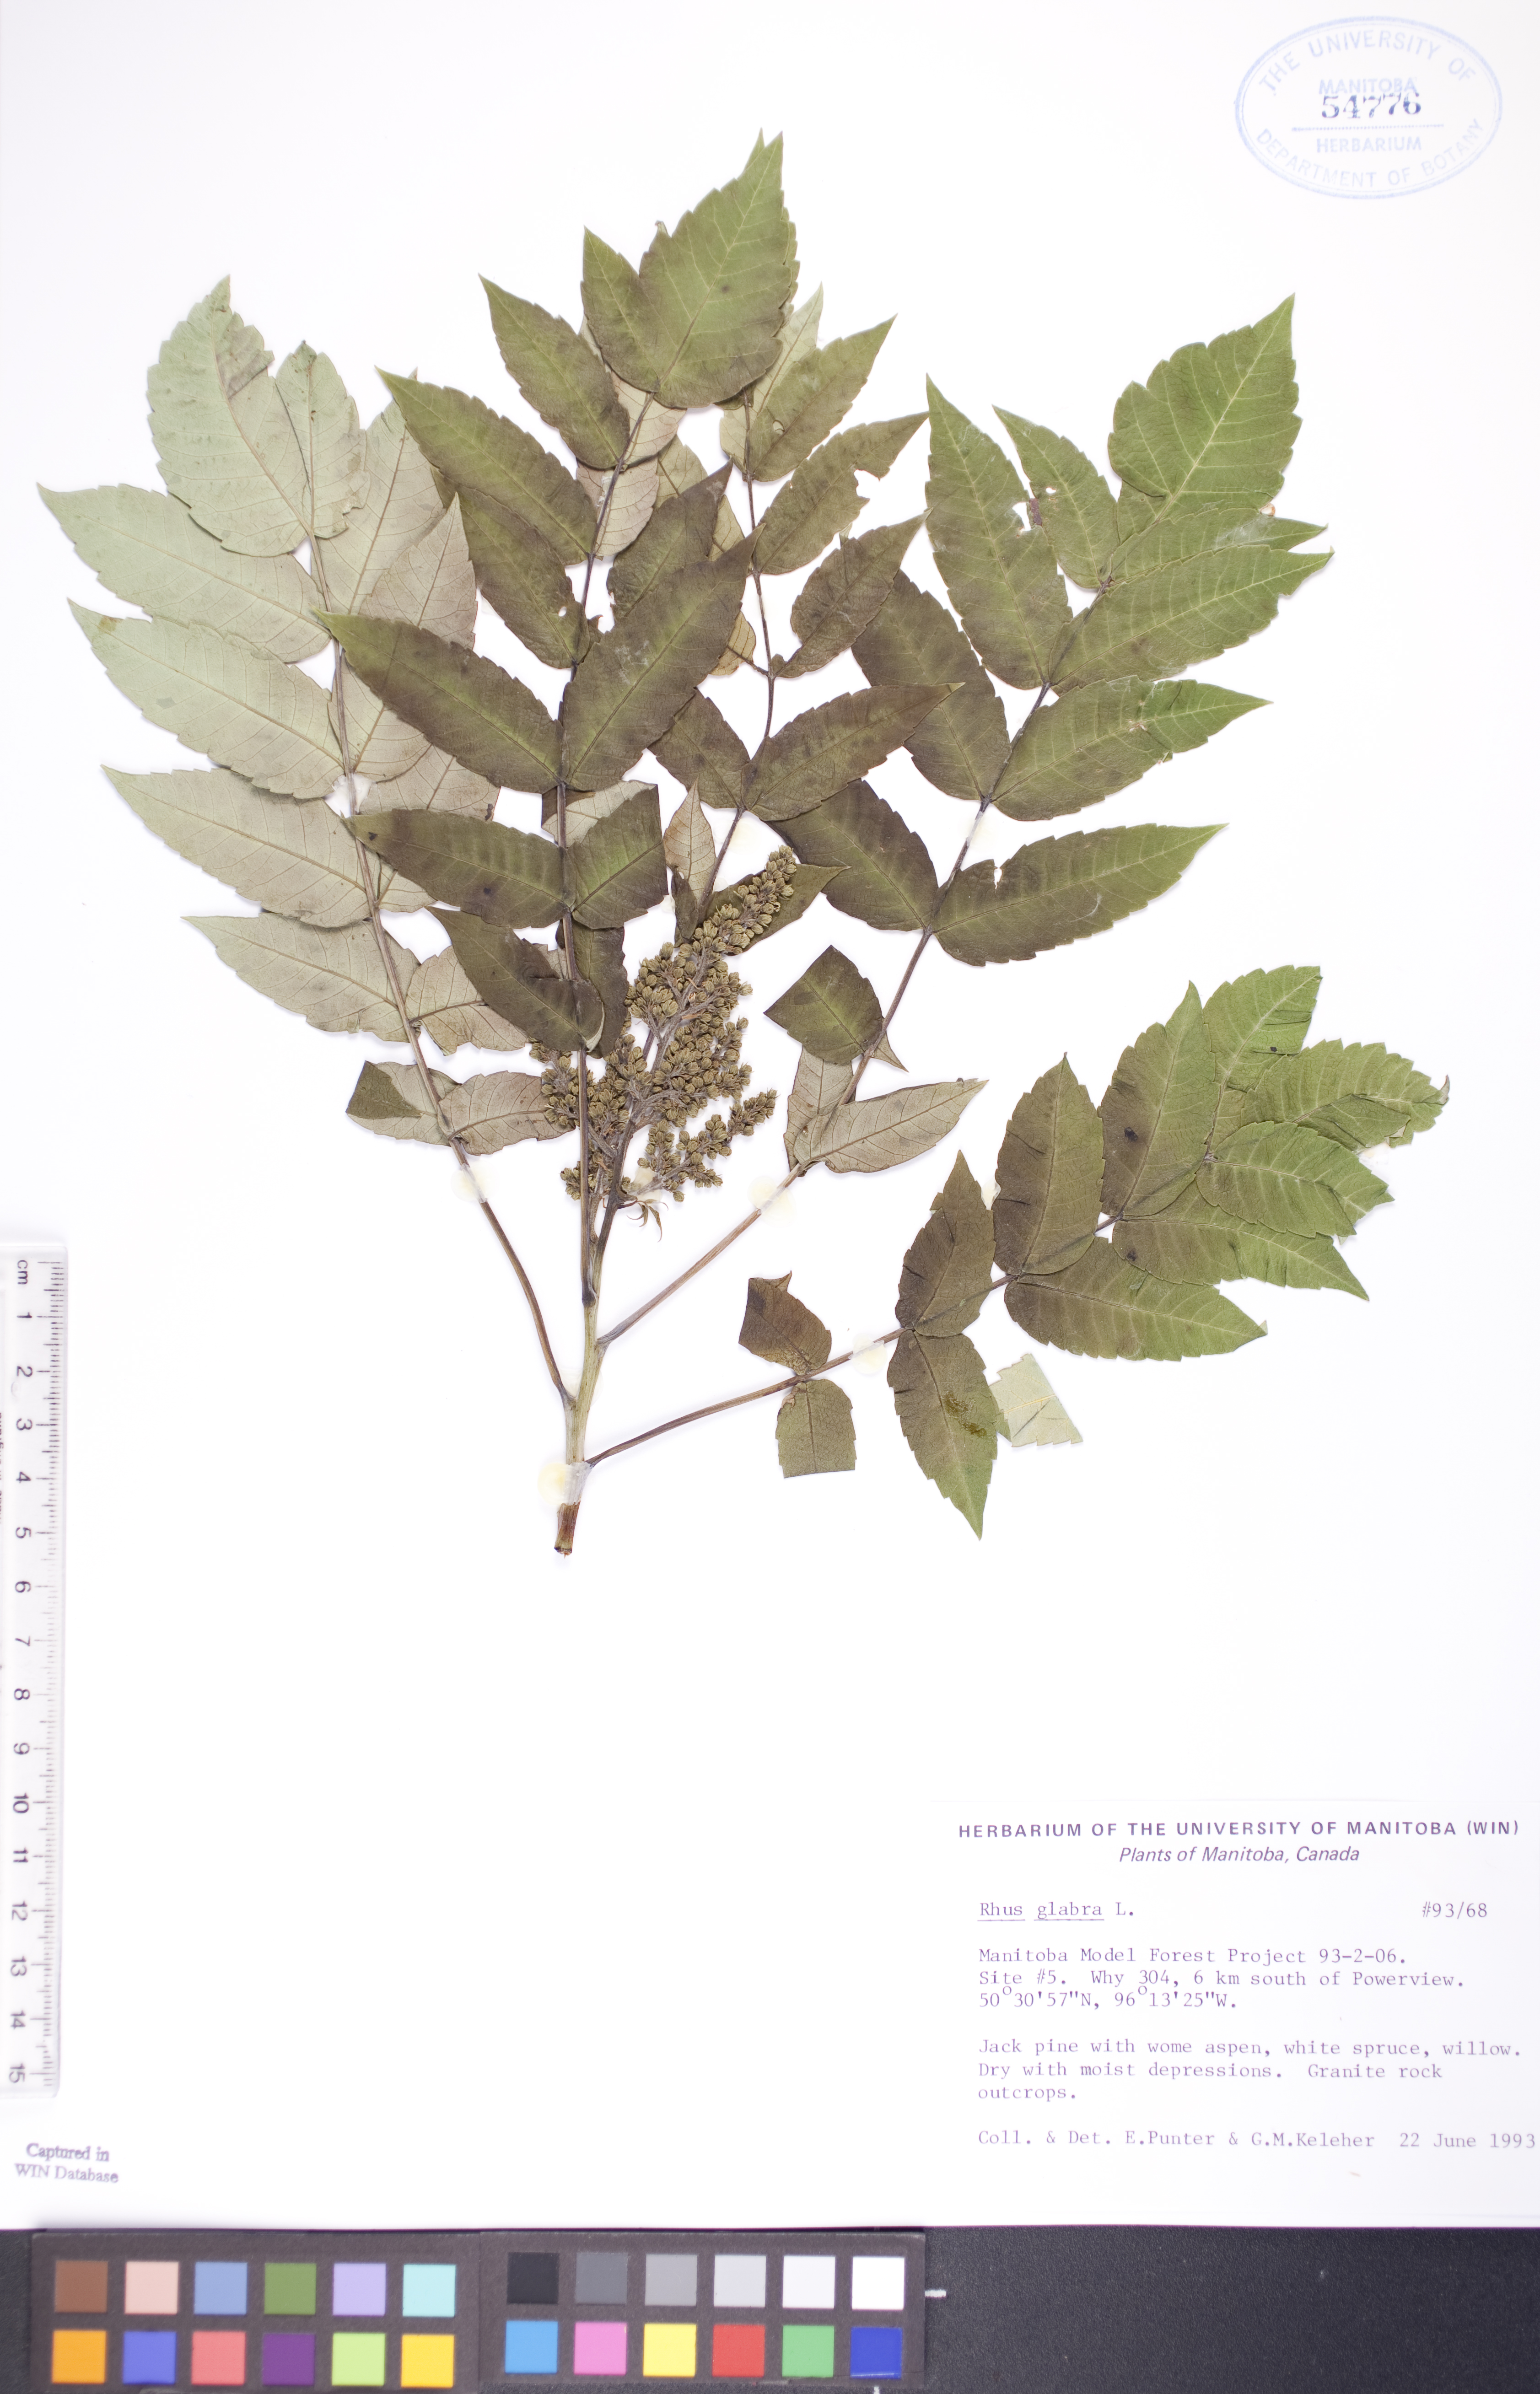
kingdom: Plantae
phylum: Tracheophyta
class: Magnoliopsida
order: Sapindales
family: Anacardiaceae
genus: Rhus
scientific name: Rhus glabra
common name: Scarlet sumac
